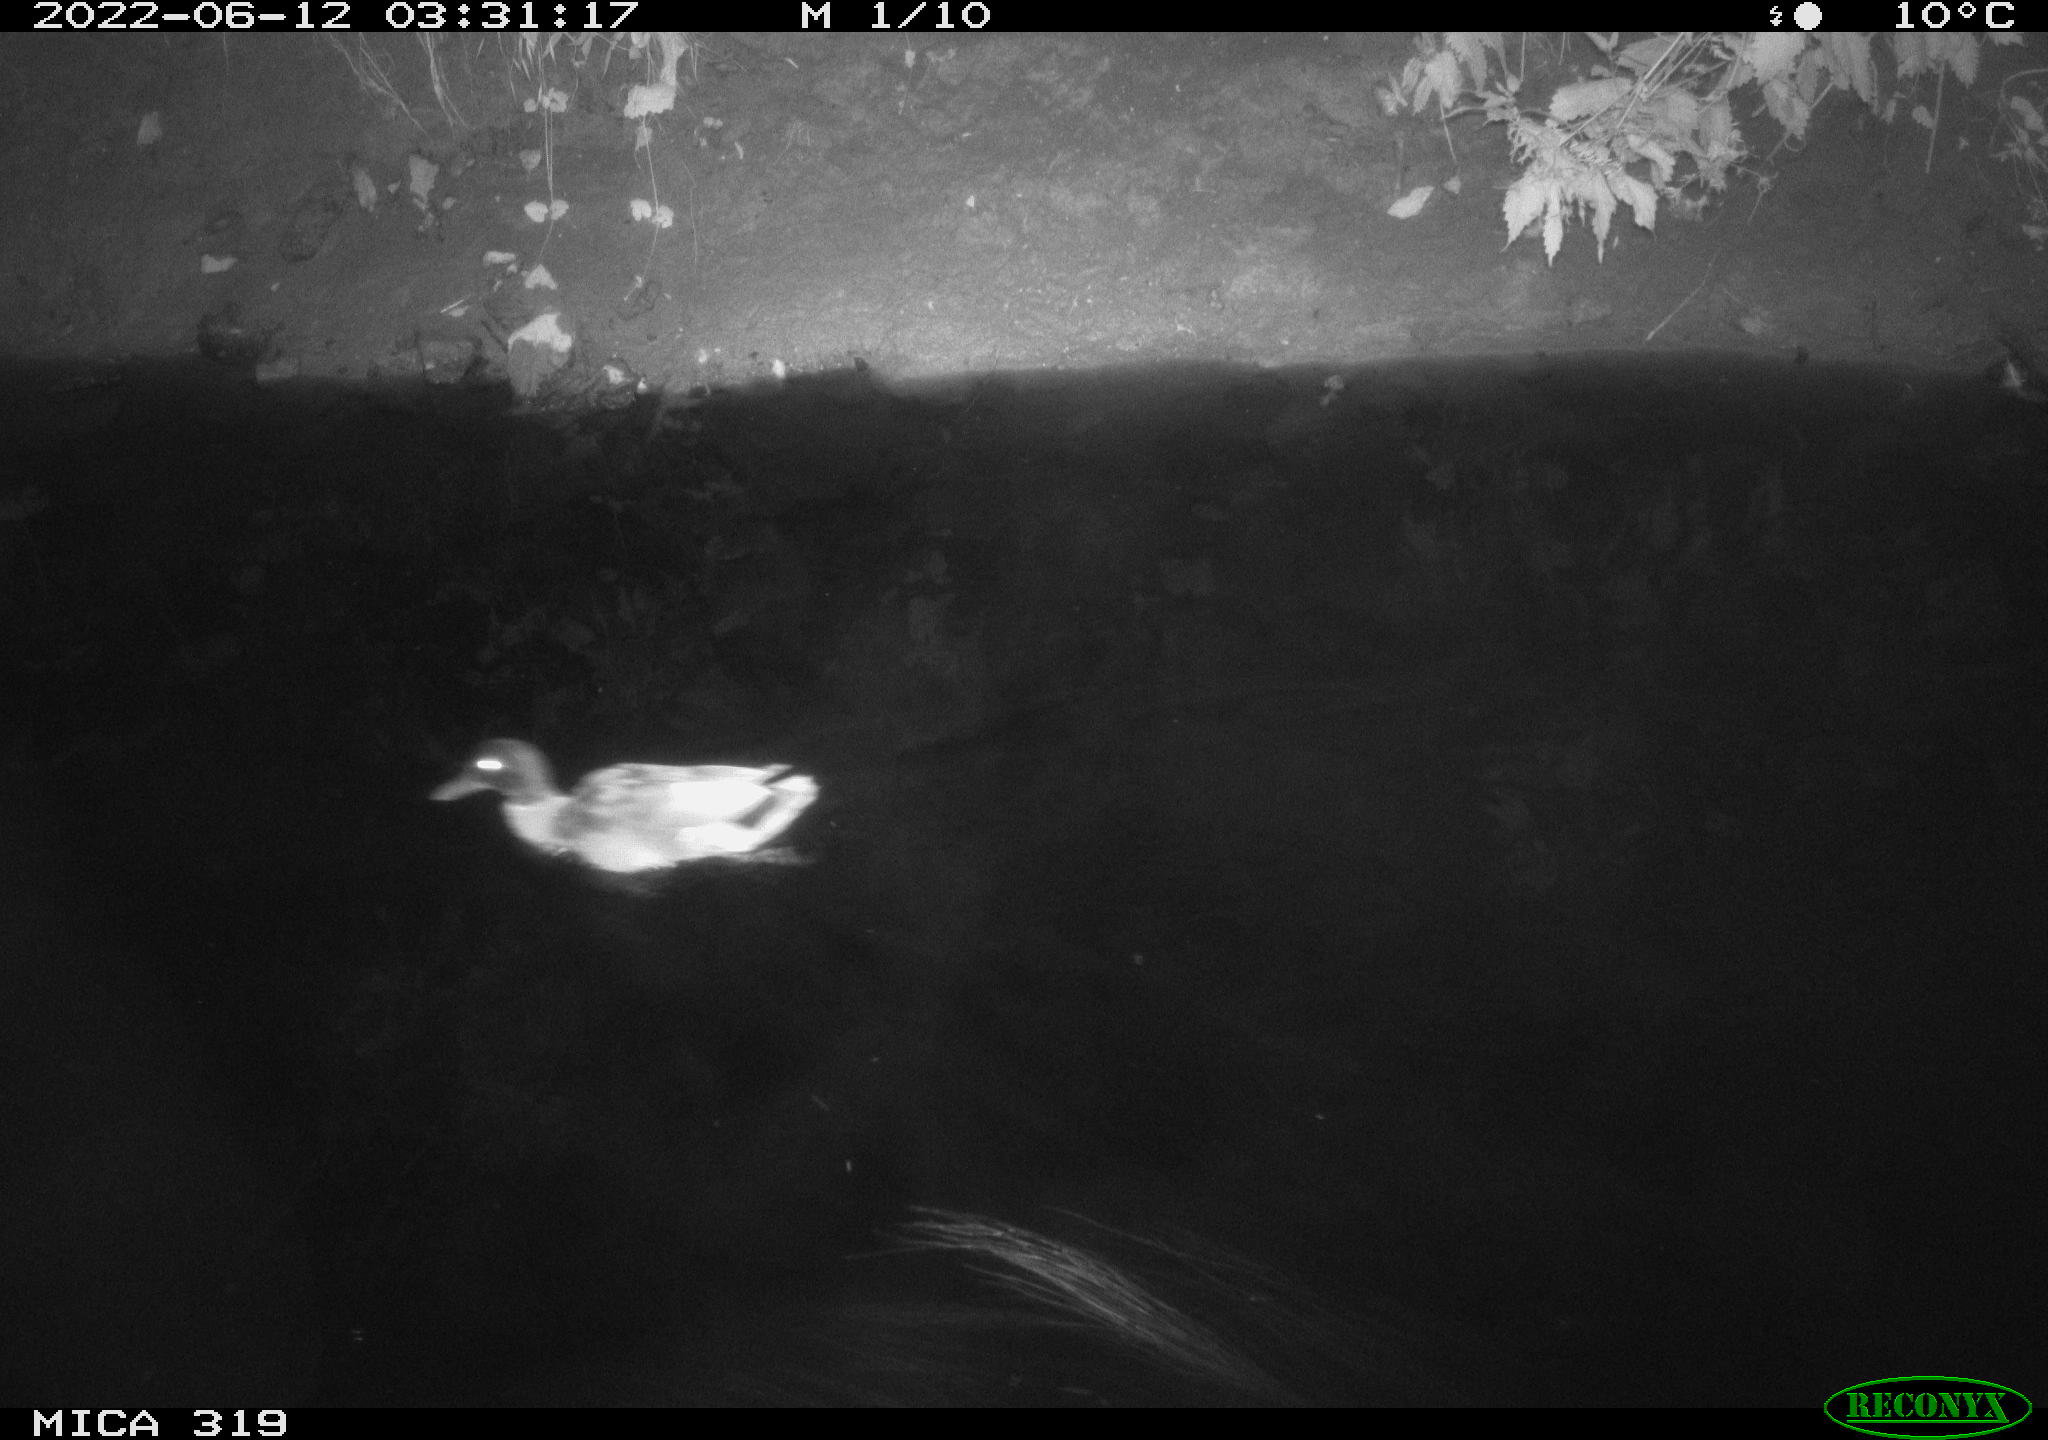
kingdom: Animalia
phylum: Chordata
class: Aves
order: Anseriformes
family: Anatidae
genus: Anas
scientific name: Anas
